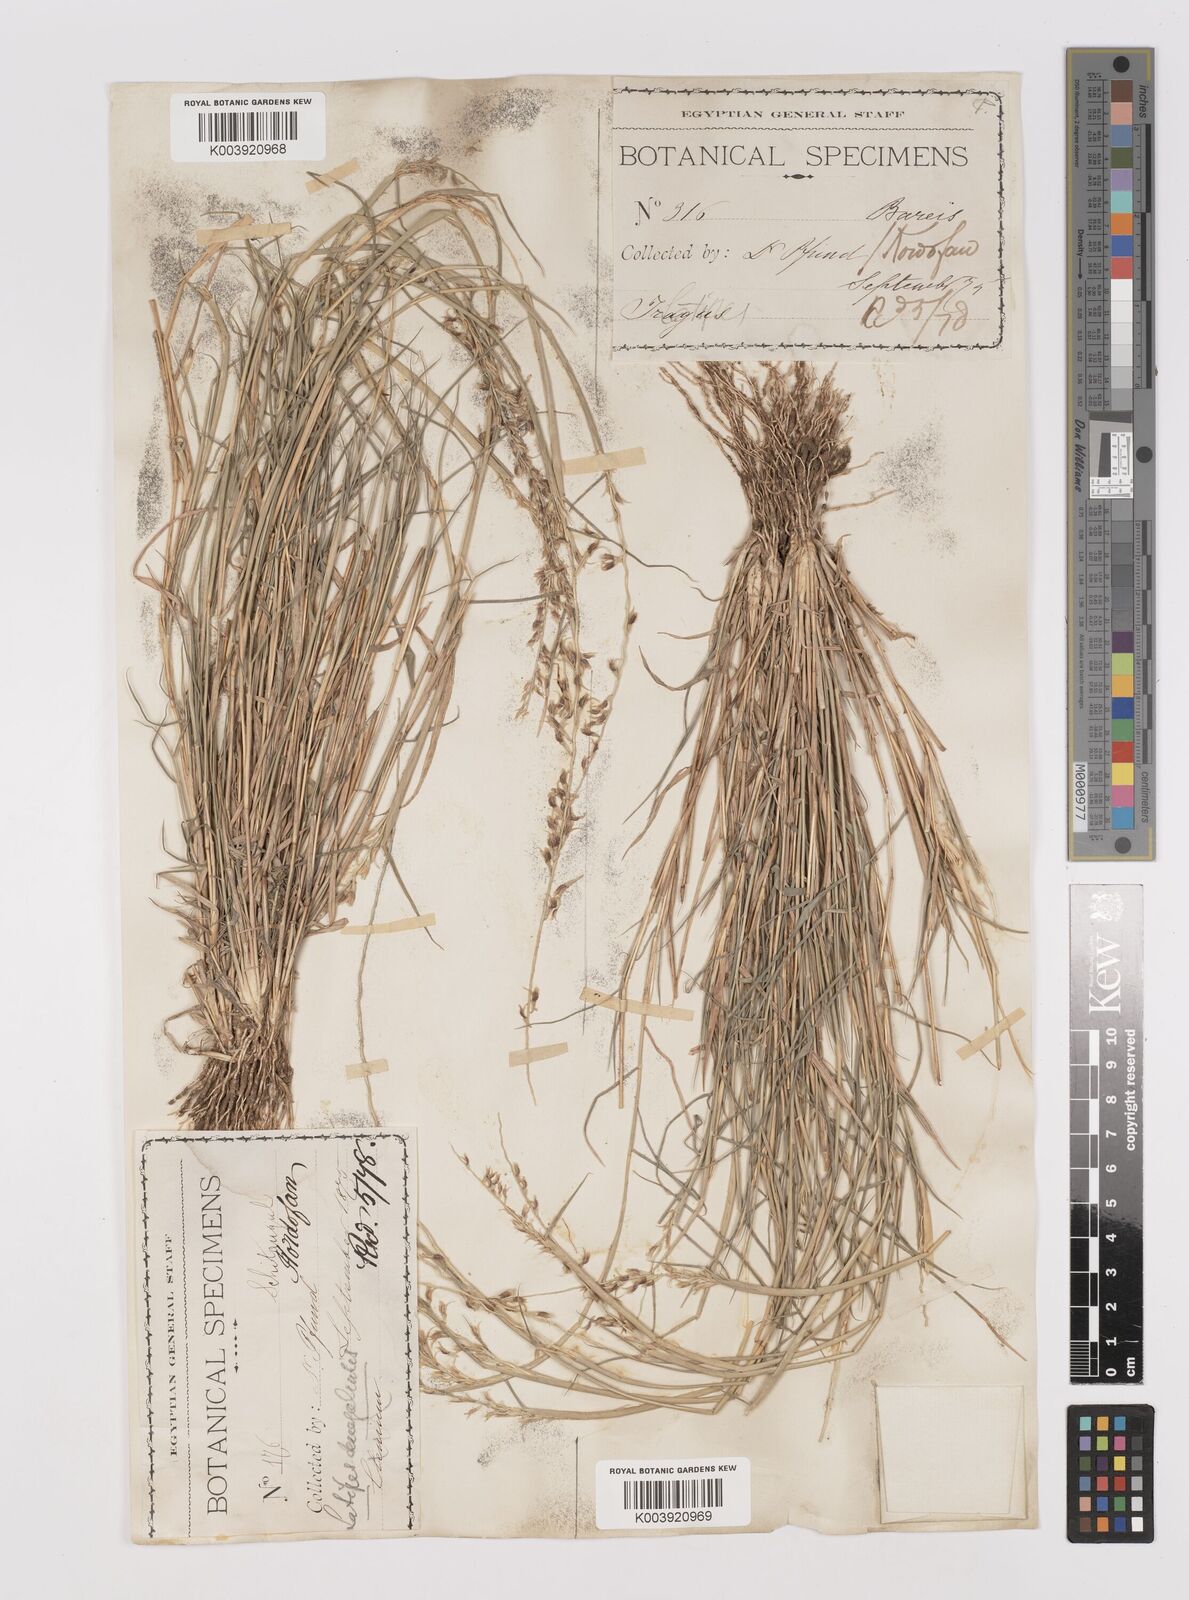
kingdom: Plantae
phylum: Tracheophyta
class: Liliopsida
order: Poales
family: Poaceae
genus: Leptothrium
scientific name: Leptothrium senegalense
